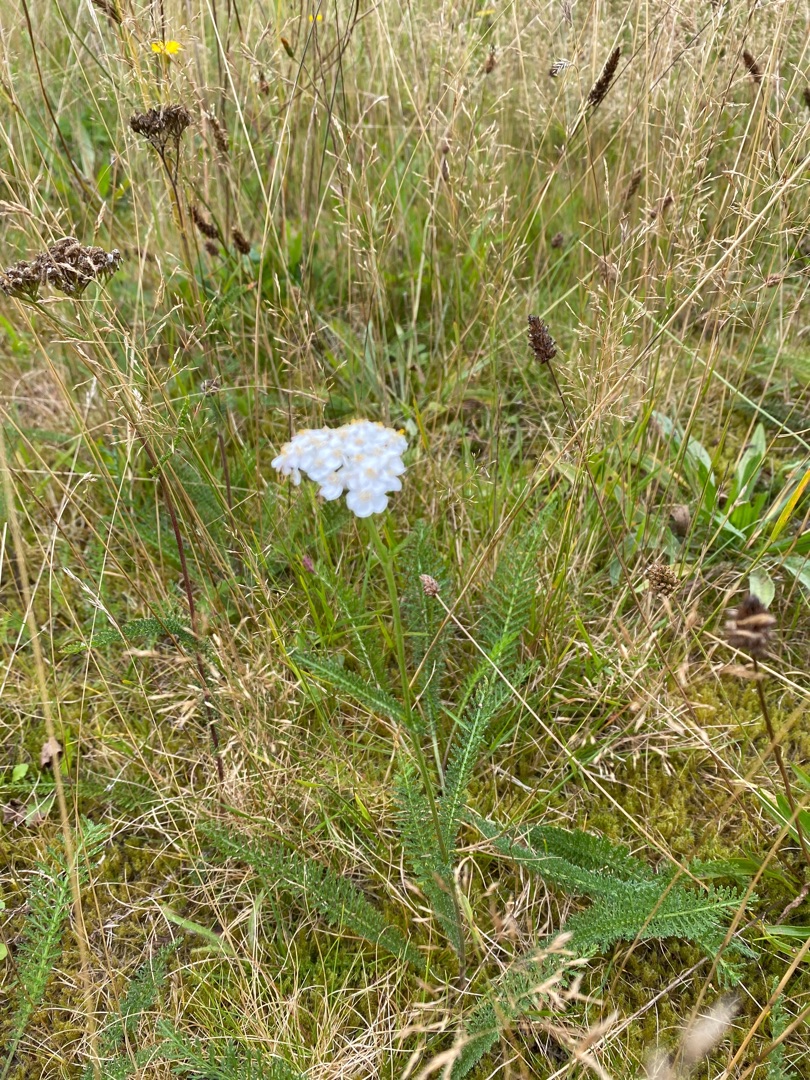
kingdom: Plantae
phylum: Tracheophyta
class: Magnoliopsida
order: Asterales
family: Asteraceae
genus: Achillea
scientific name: Achillea millefolium
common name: Almindelig røllike
